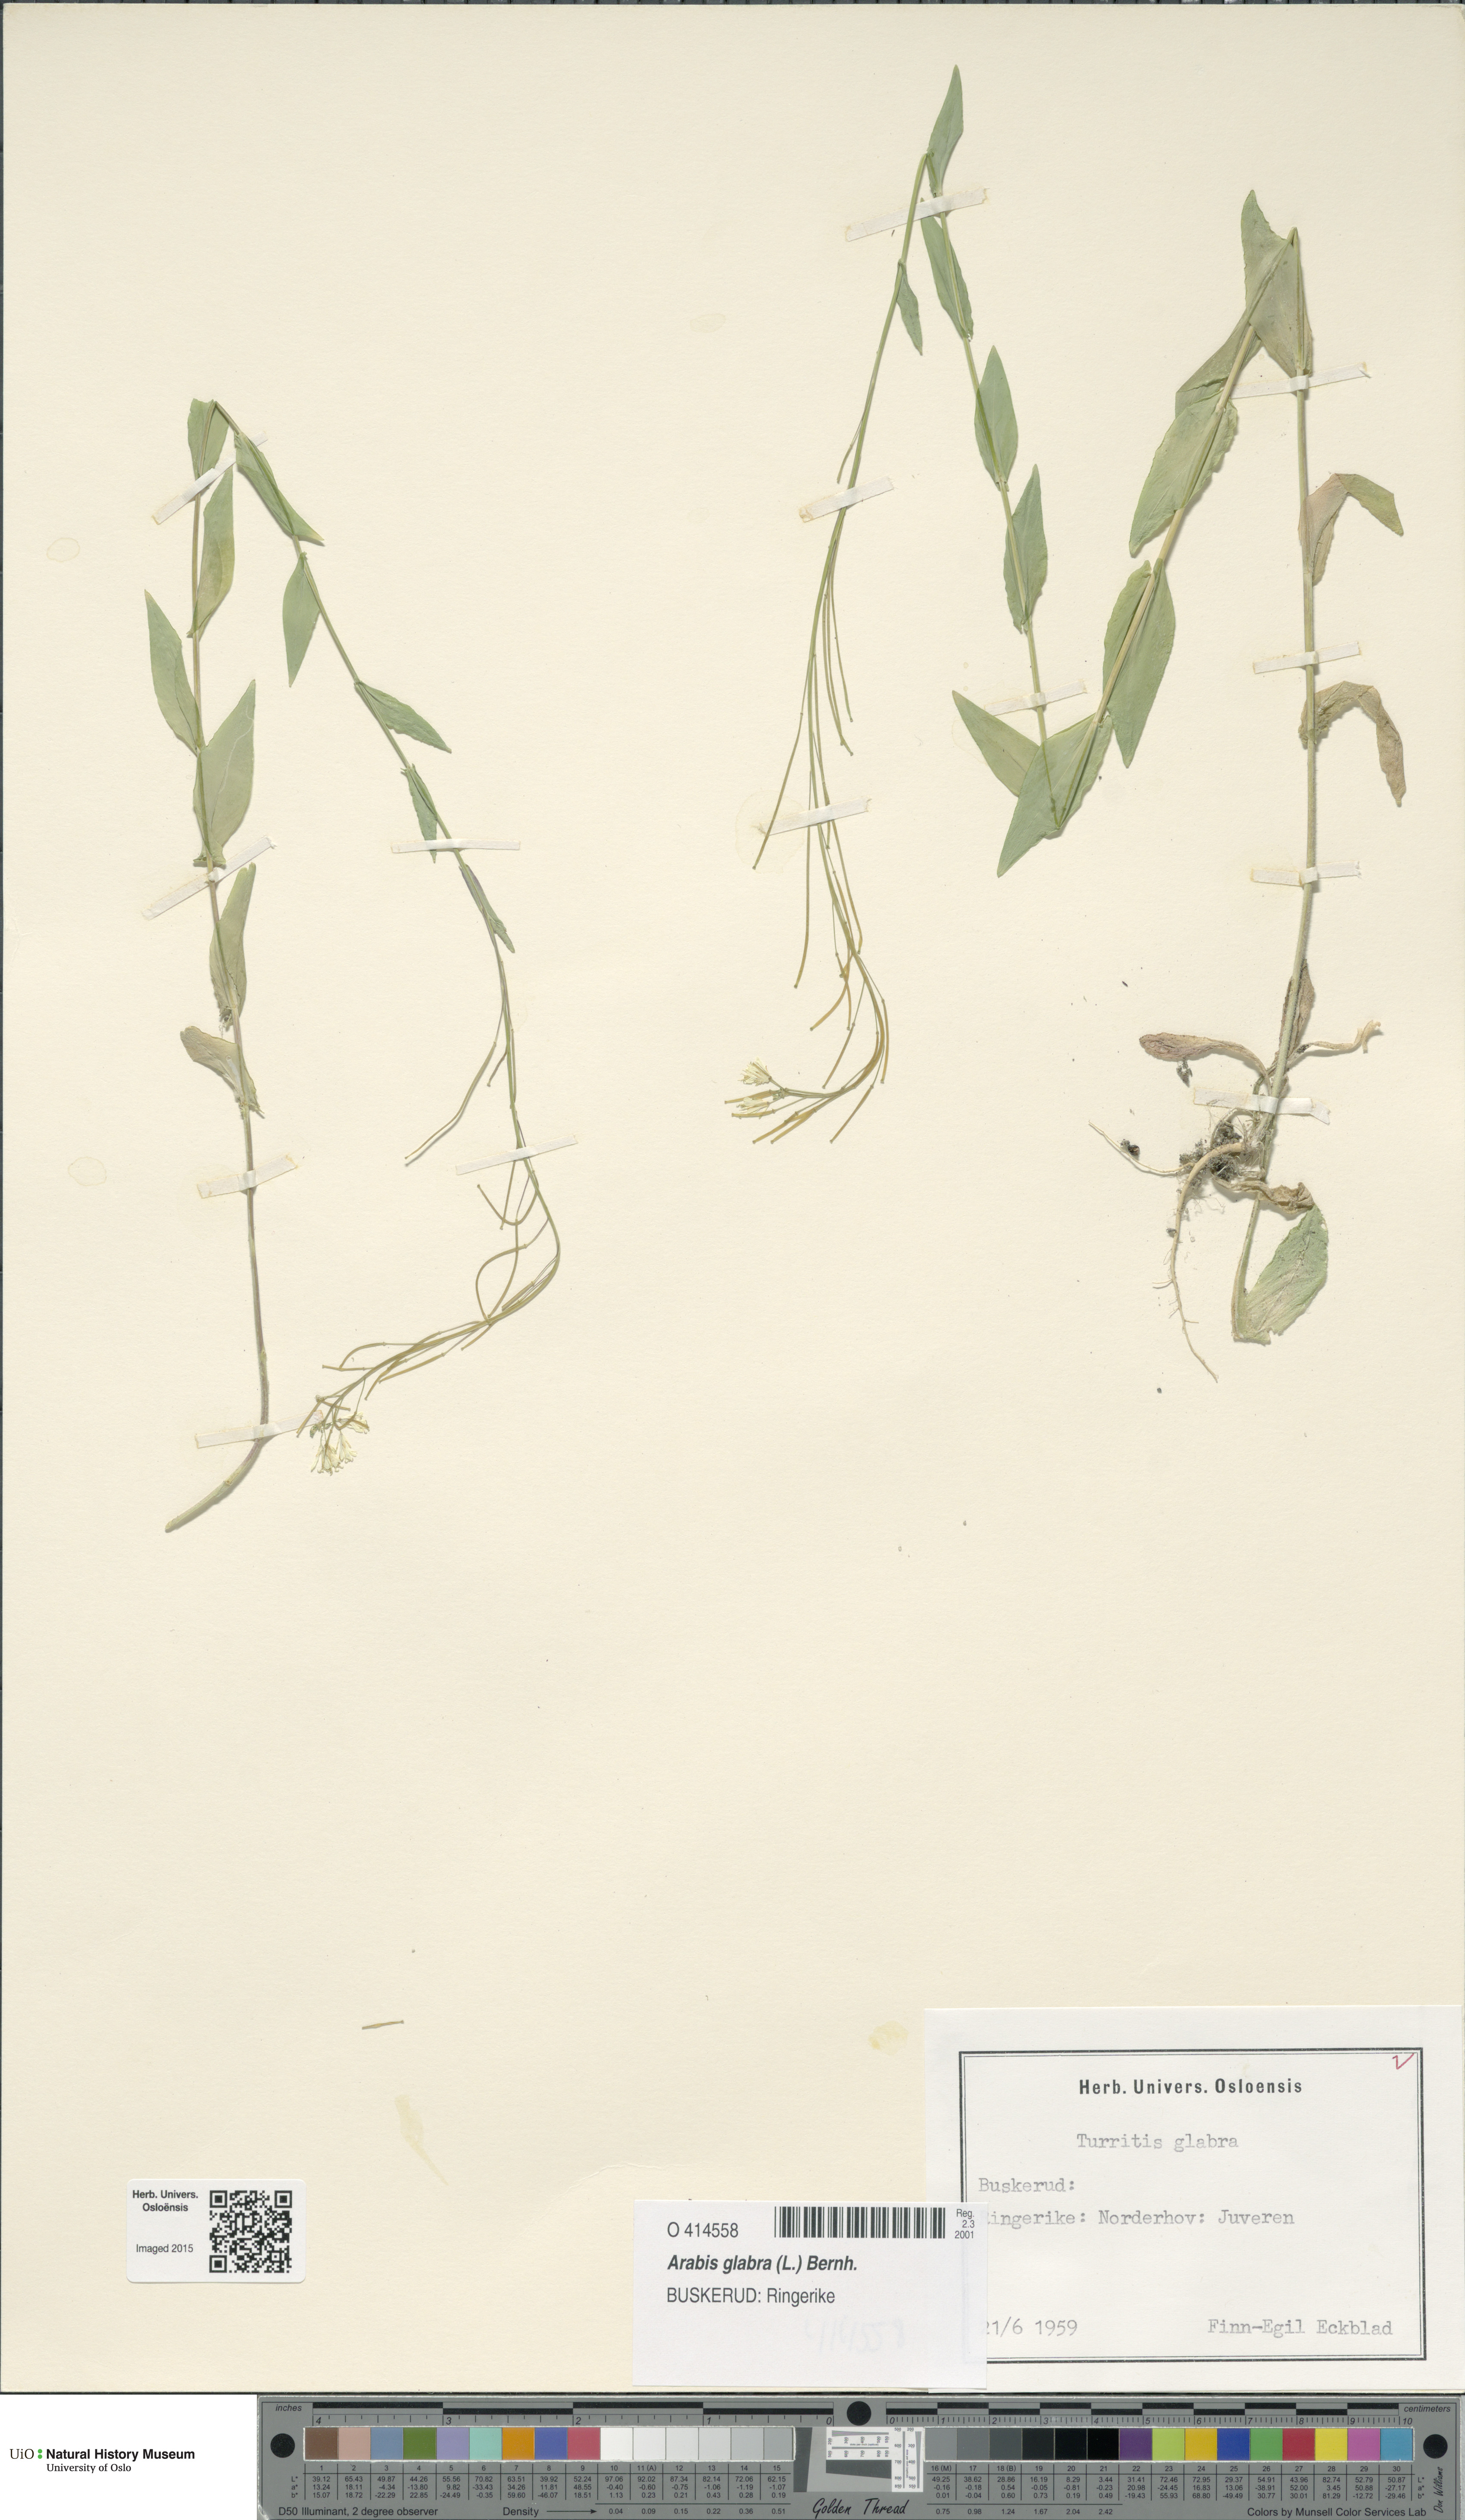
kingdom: Plantae
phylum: Tracheophyta
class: Magnoliopsida
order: Brassicales
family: Brassicaceae
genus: Turritis
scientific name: Turritis glabra
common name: Tower rockcress
